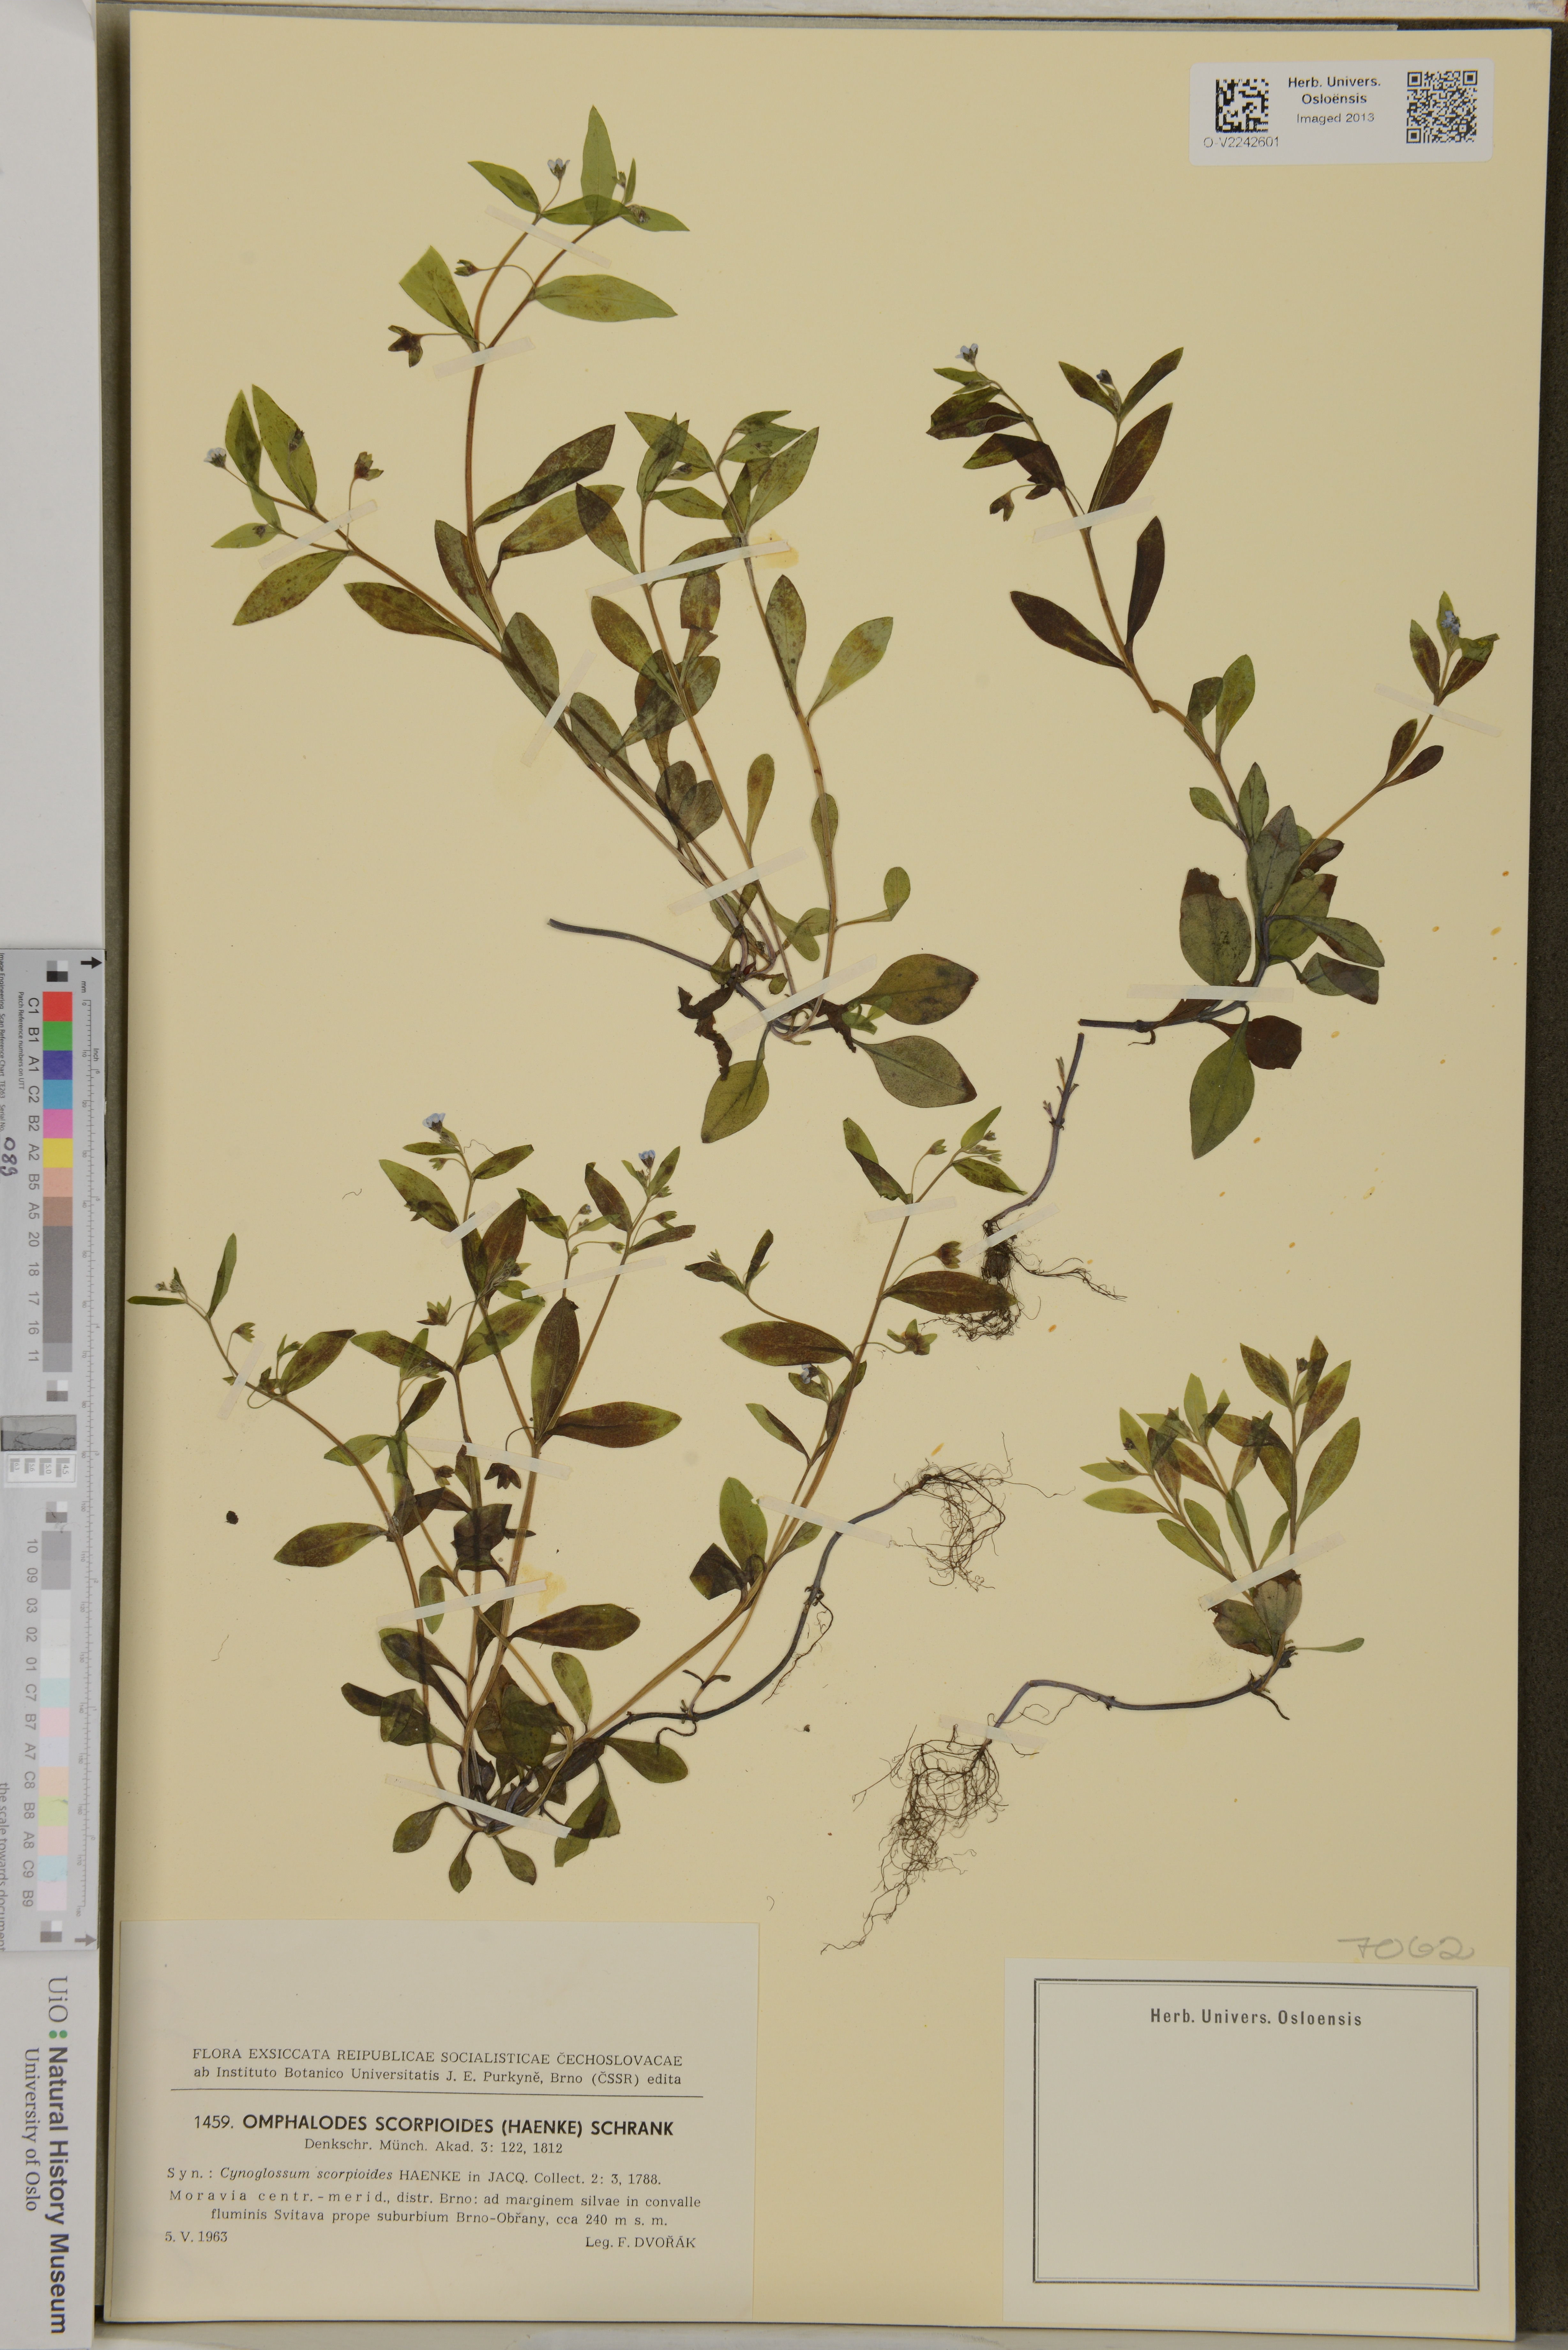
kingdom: Plantae
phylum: Tracheophyta
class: Magnoliopsida
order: Boraginales
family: Boraginaceae
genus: Memoremea
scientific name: Memoremea scorpioides
